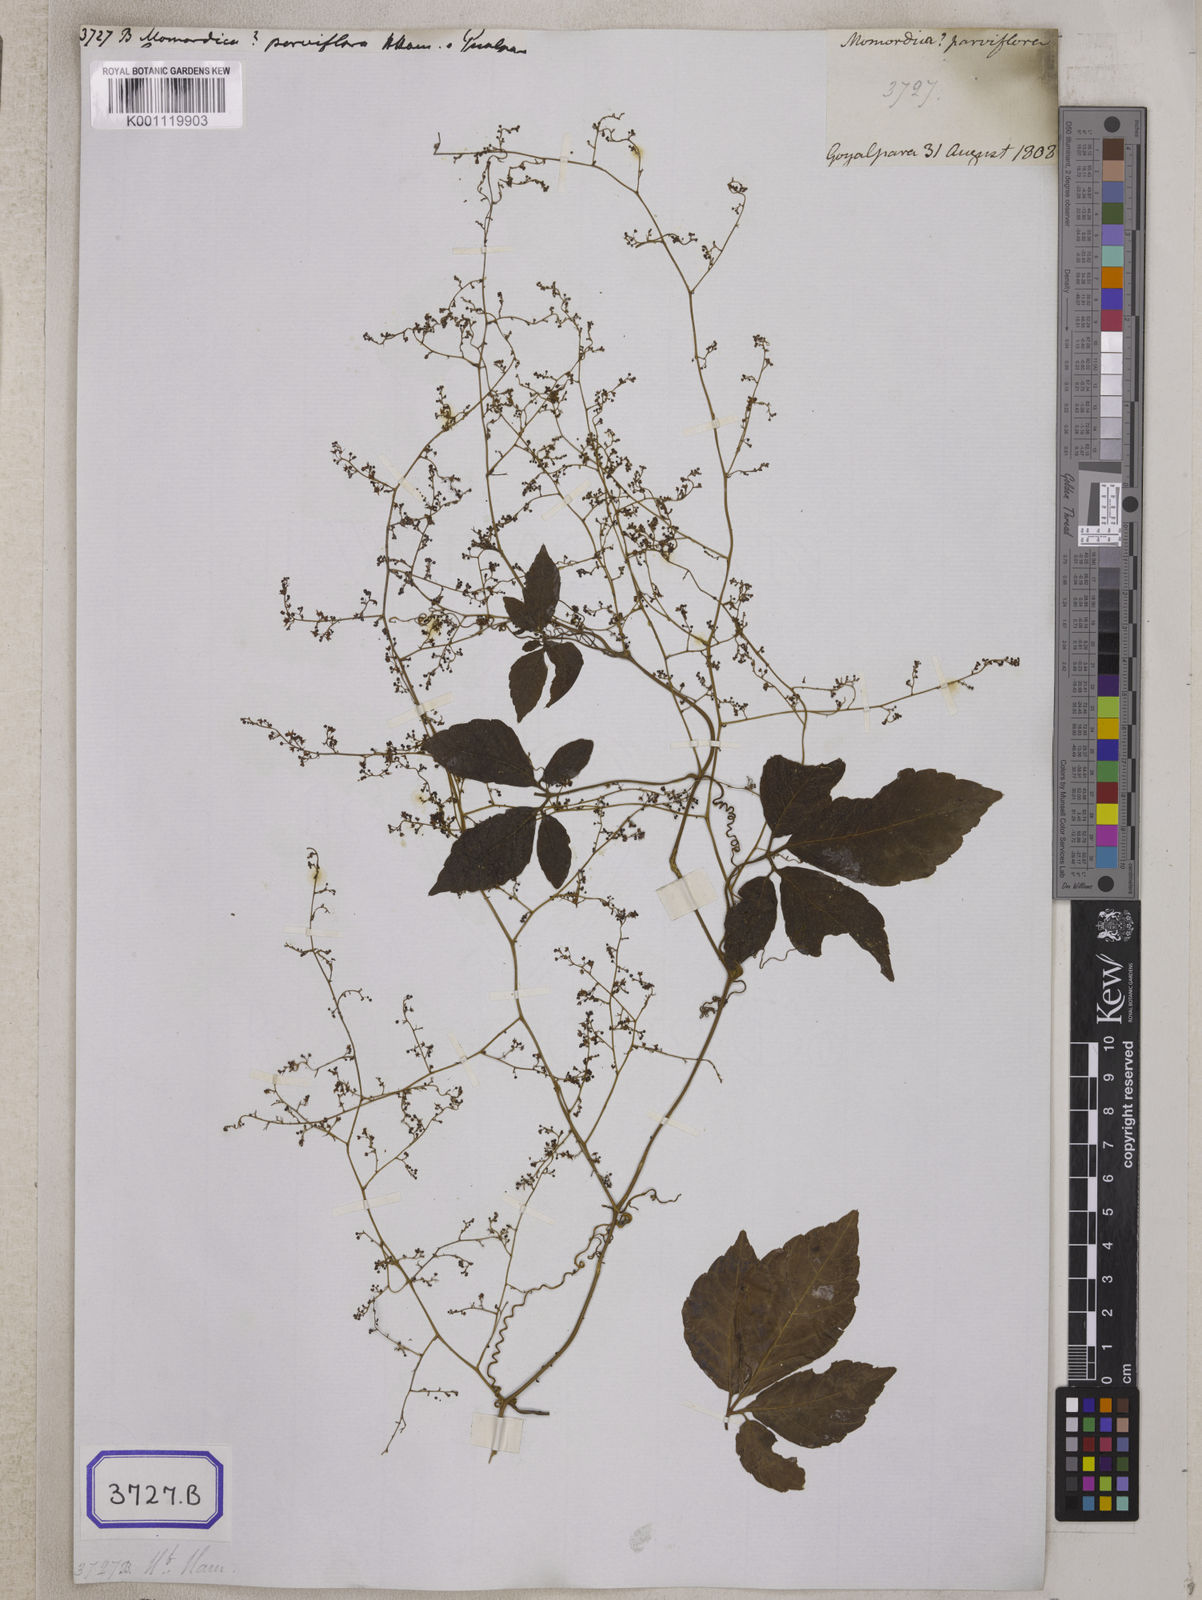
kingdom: Plantae
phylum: Tracheophyta
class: Magnoliopsida
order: Cucurbitales
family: Cucurbitaceae
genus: Gynostemma
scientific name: Gynostemma laxum
